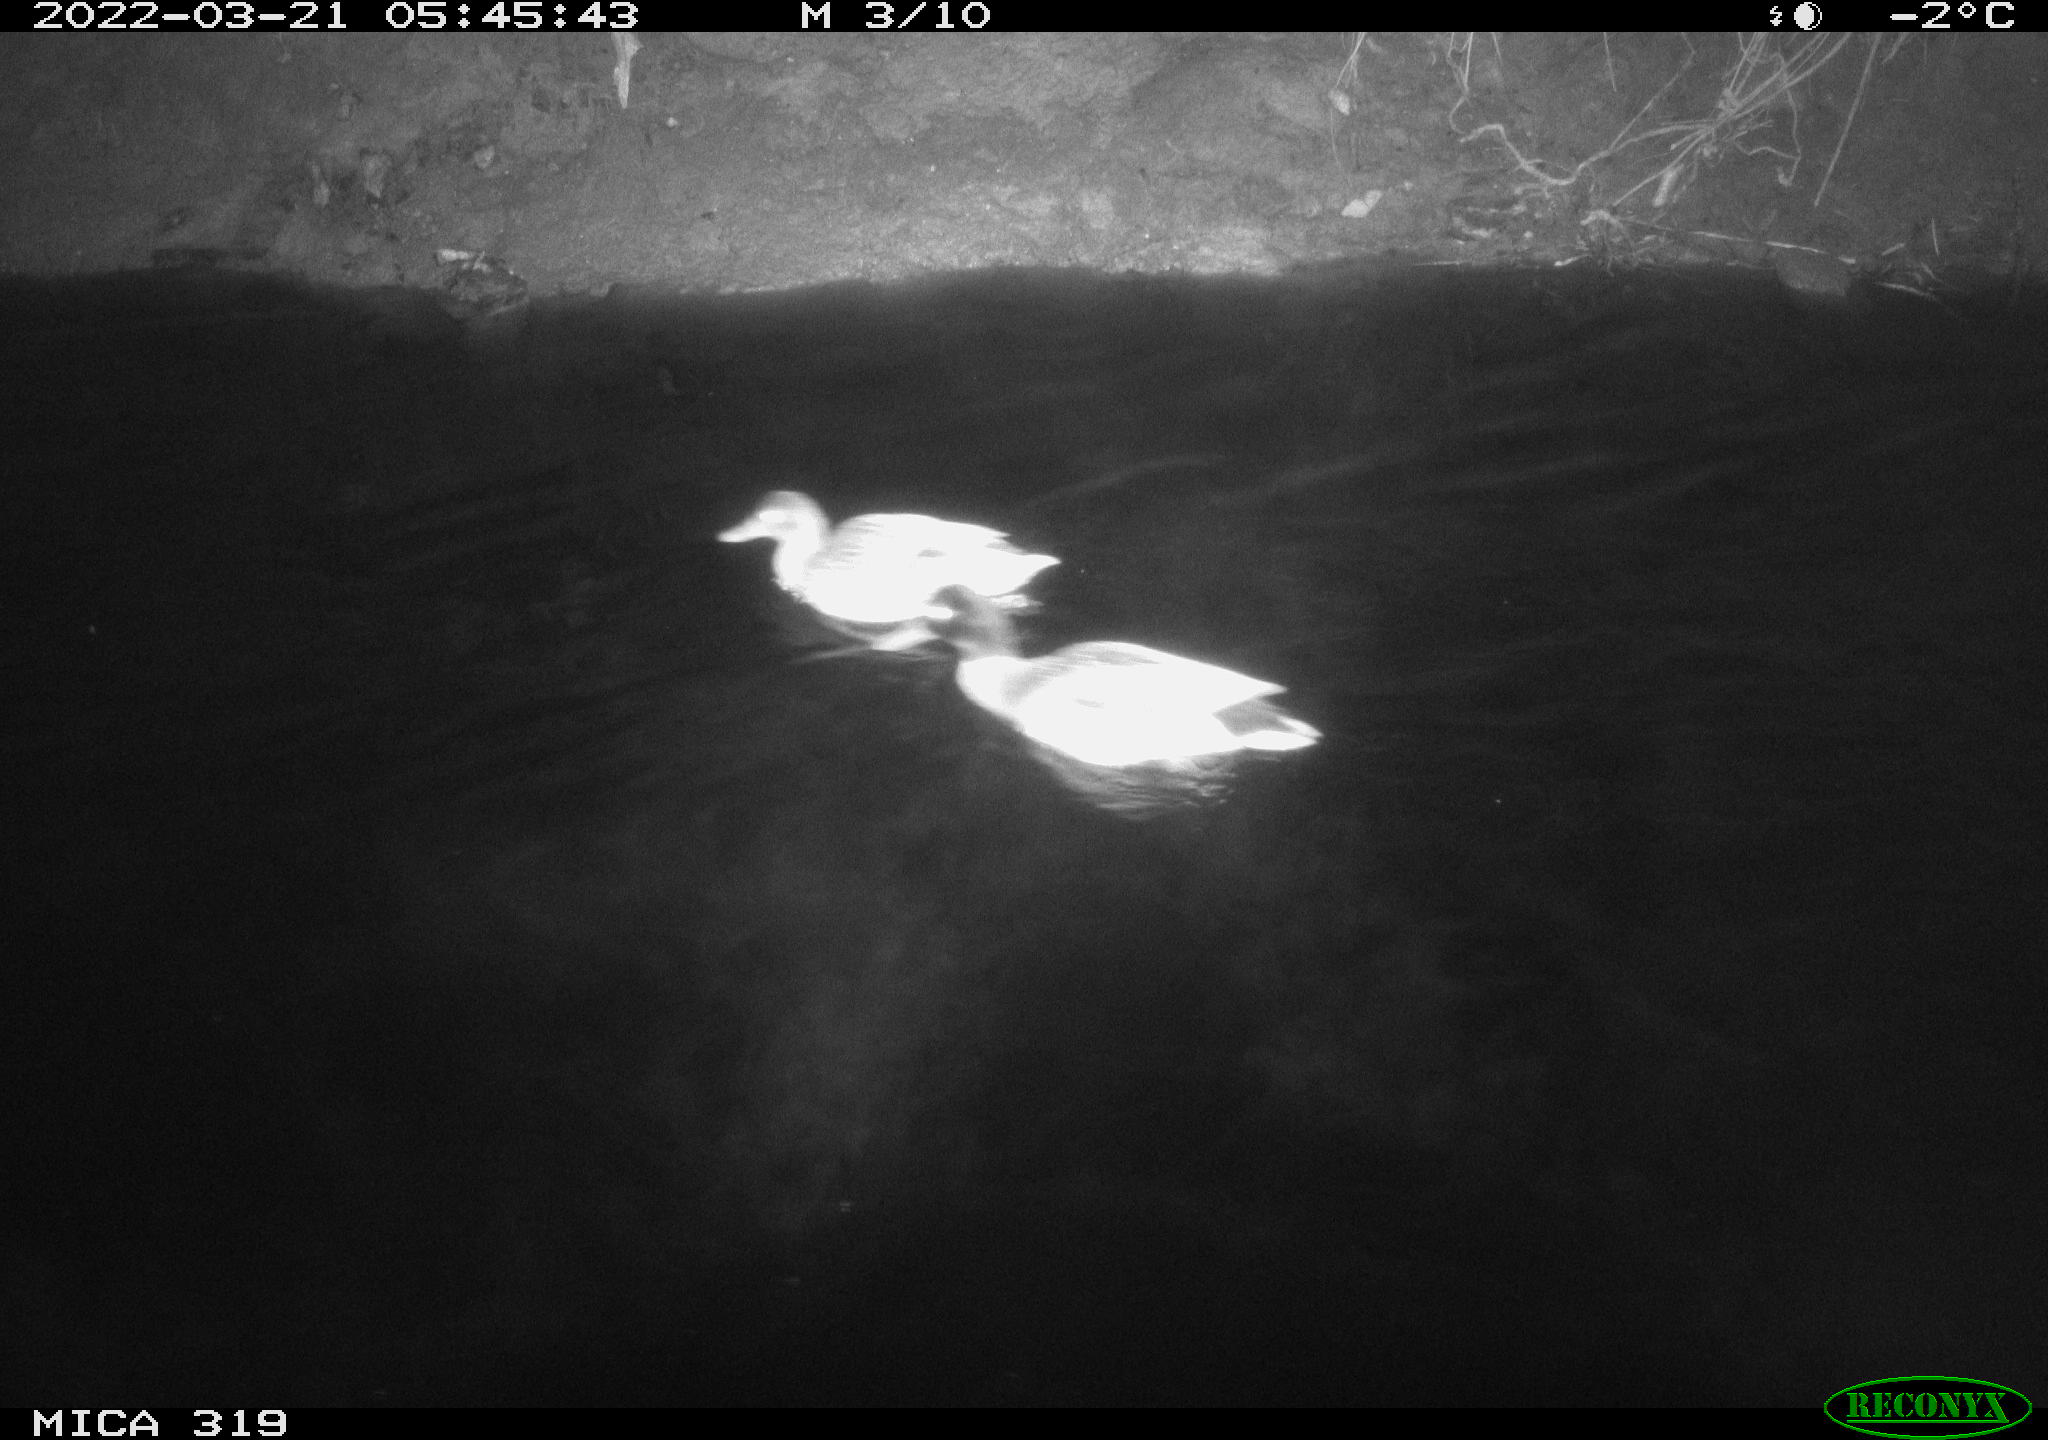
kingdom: Animalia
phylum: Chordata
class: Aves
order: Anseriformes
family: Anatidae
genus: Anas
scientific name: Anas platyrhynchos
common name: Mallard
